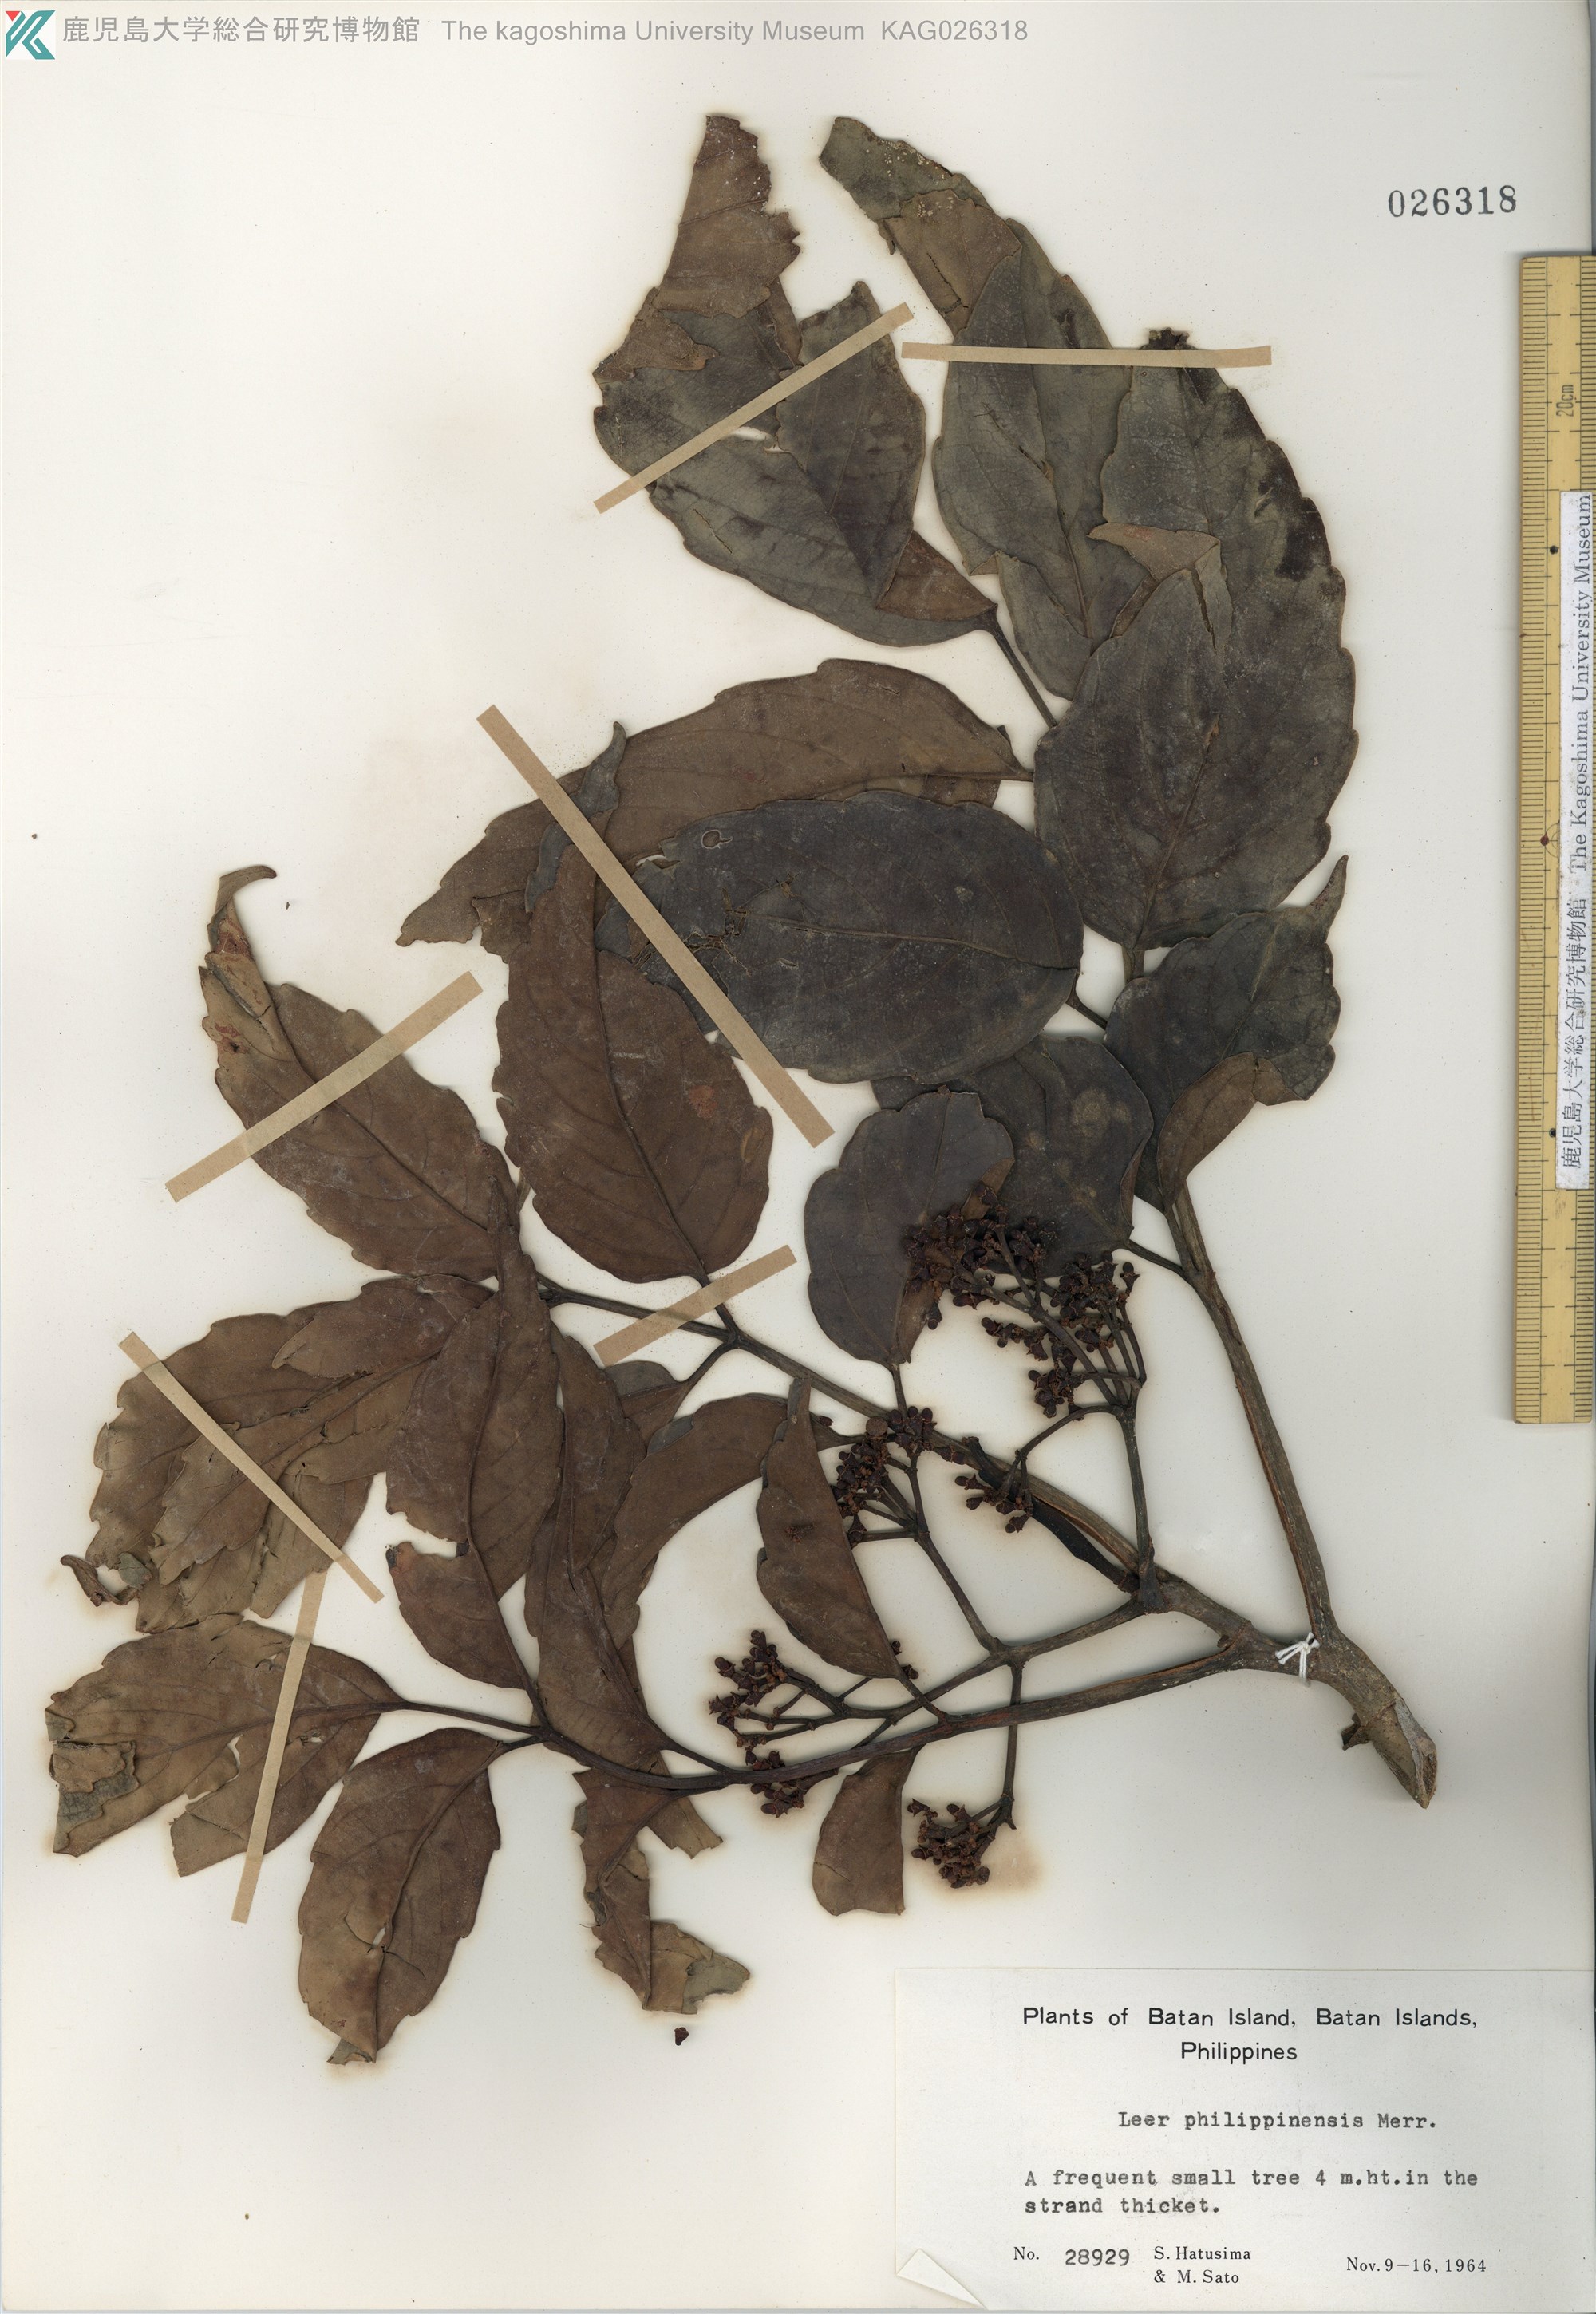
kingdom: Plantae
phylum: Tracheophyta
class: Magnoliopsida
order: Vitales
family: Vitaceae
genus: Leea
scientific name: Leea philippinensis
